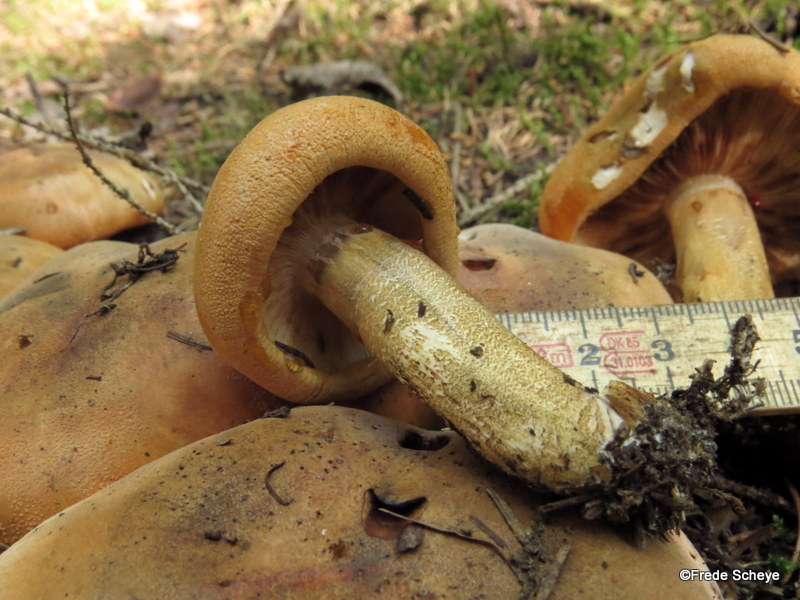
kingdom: Fungi
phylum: Basidiomycota
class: Agaricomycetes
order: Agaricales
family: Tricholomataceae
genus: Tricholoma
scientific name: Tricholoma aurantium
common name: orangegul ridderhat
